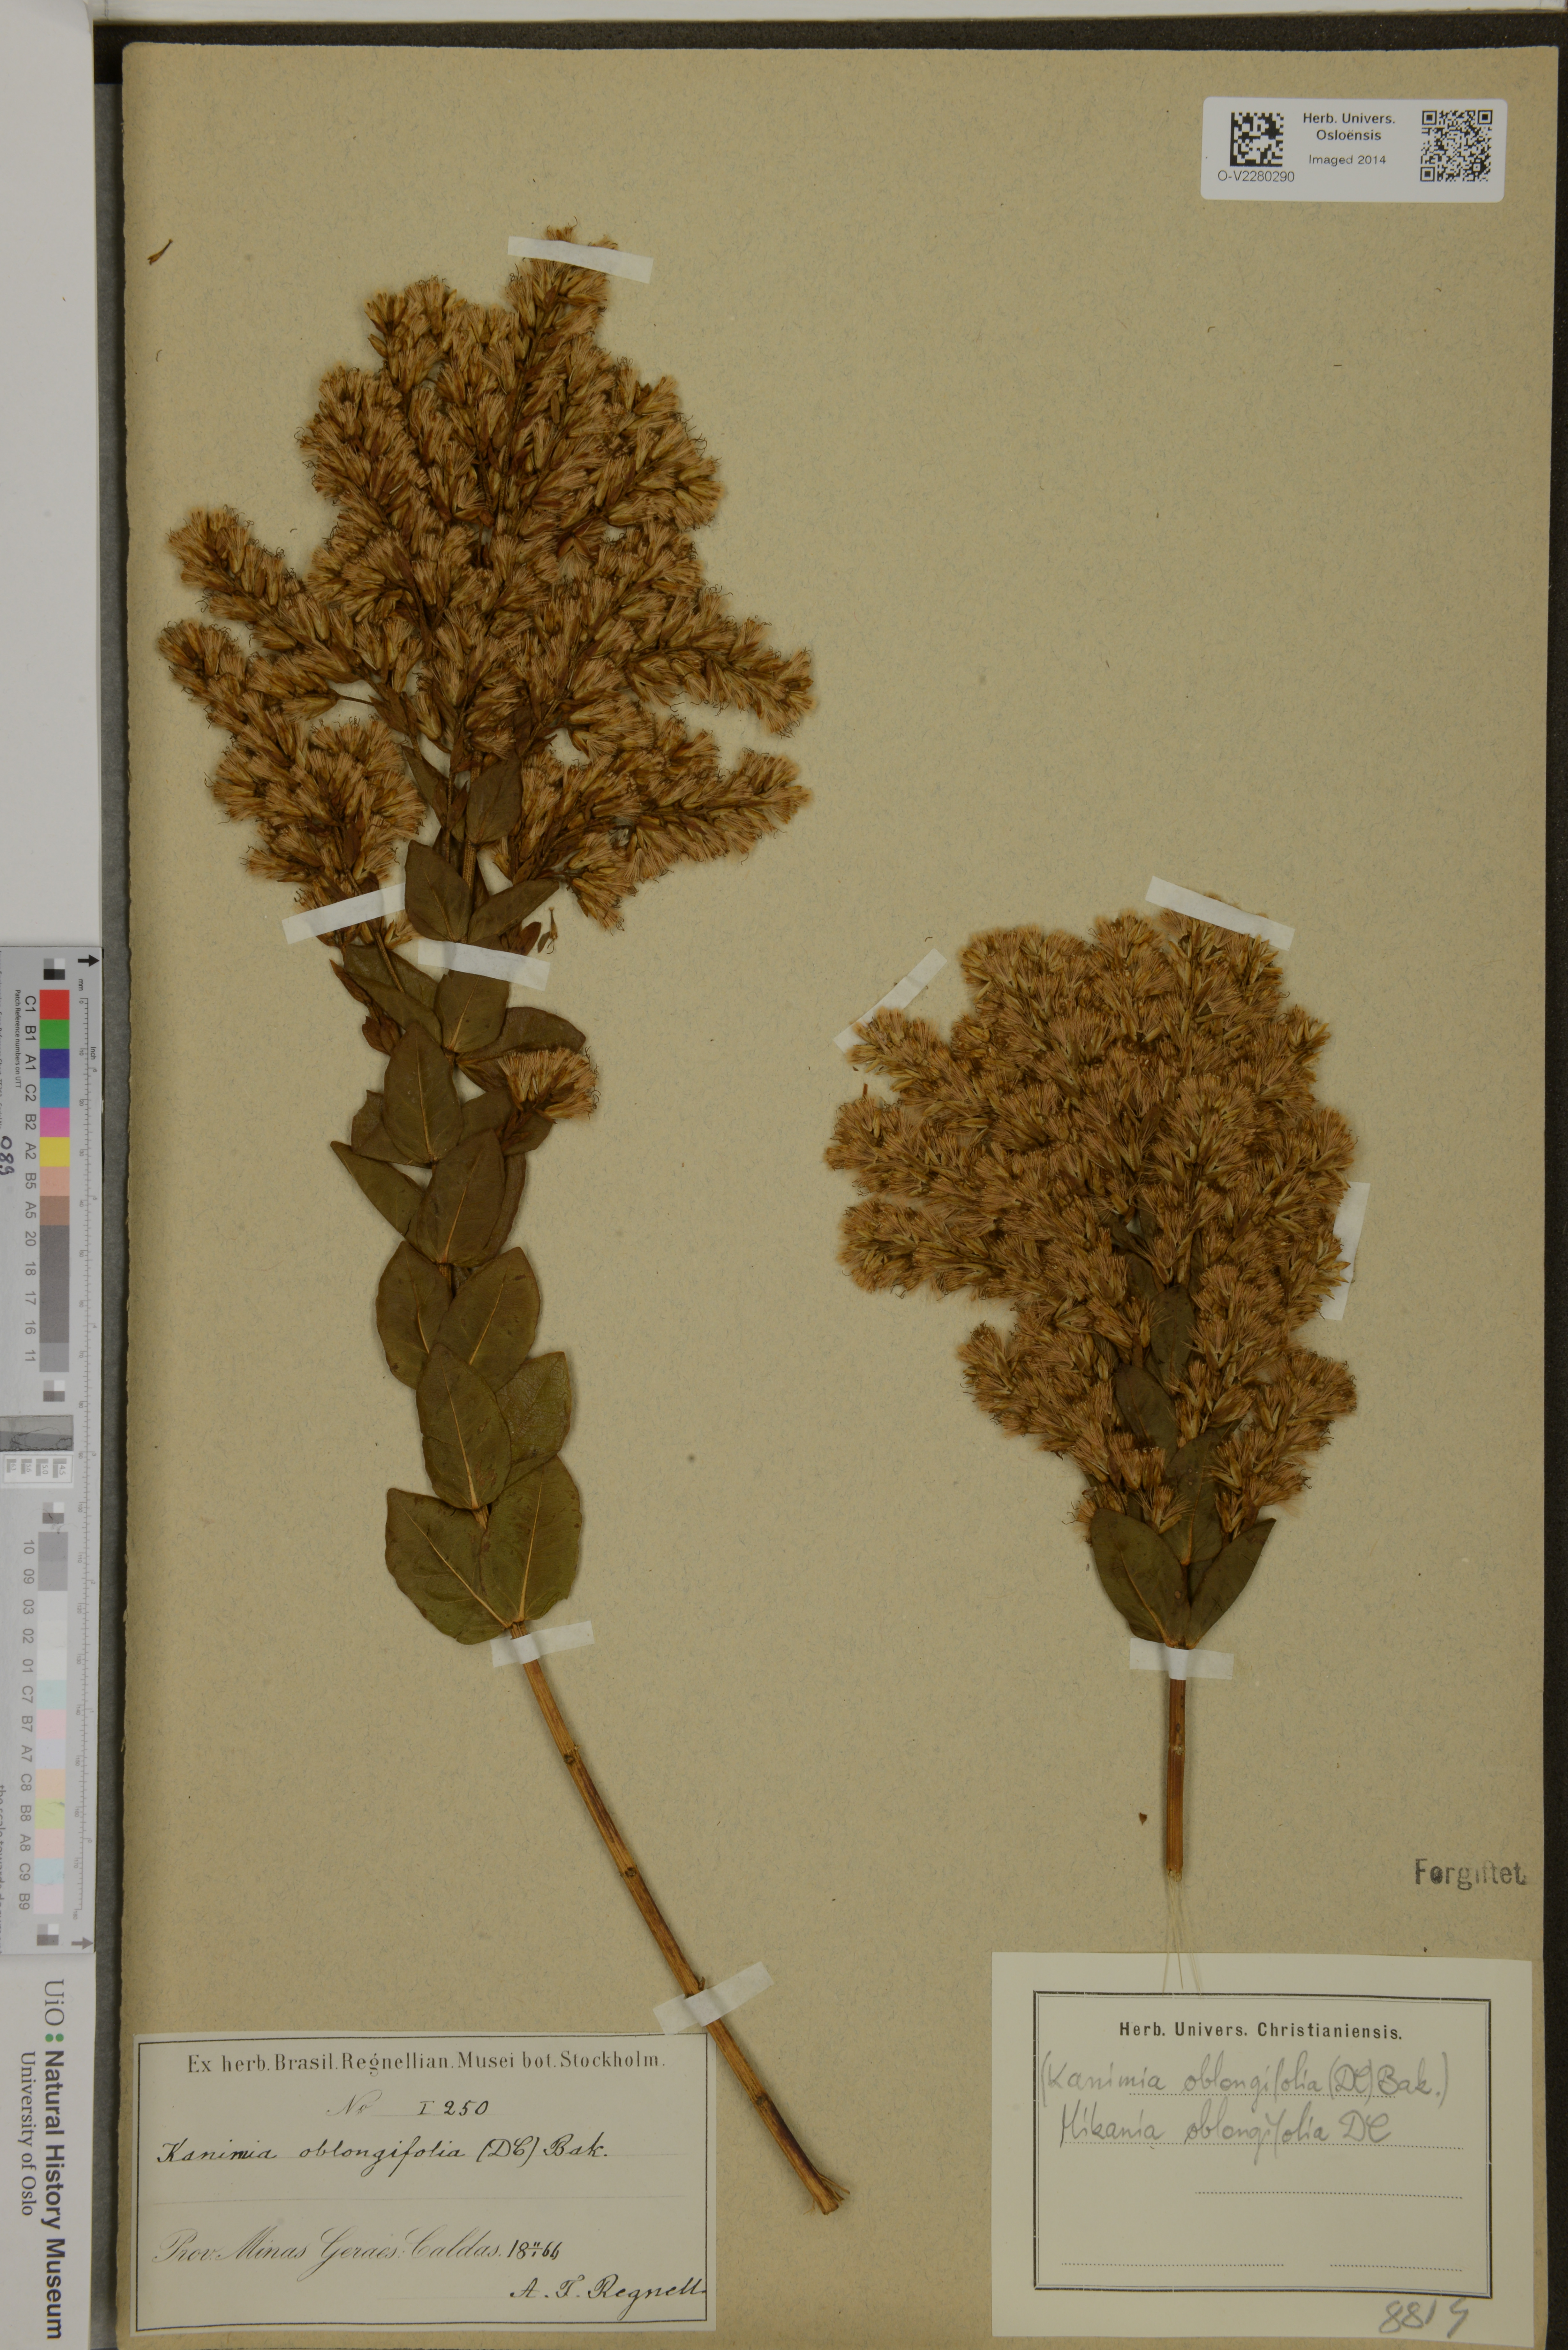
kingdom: Plantae
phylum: Tracheophyta
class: Magnoliopsida
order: Asterales
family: Asteraceae
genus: Mikania
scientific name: Mikania oblongifolia
